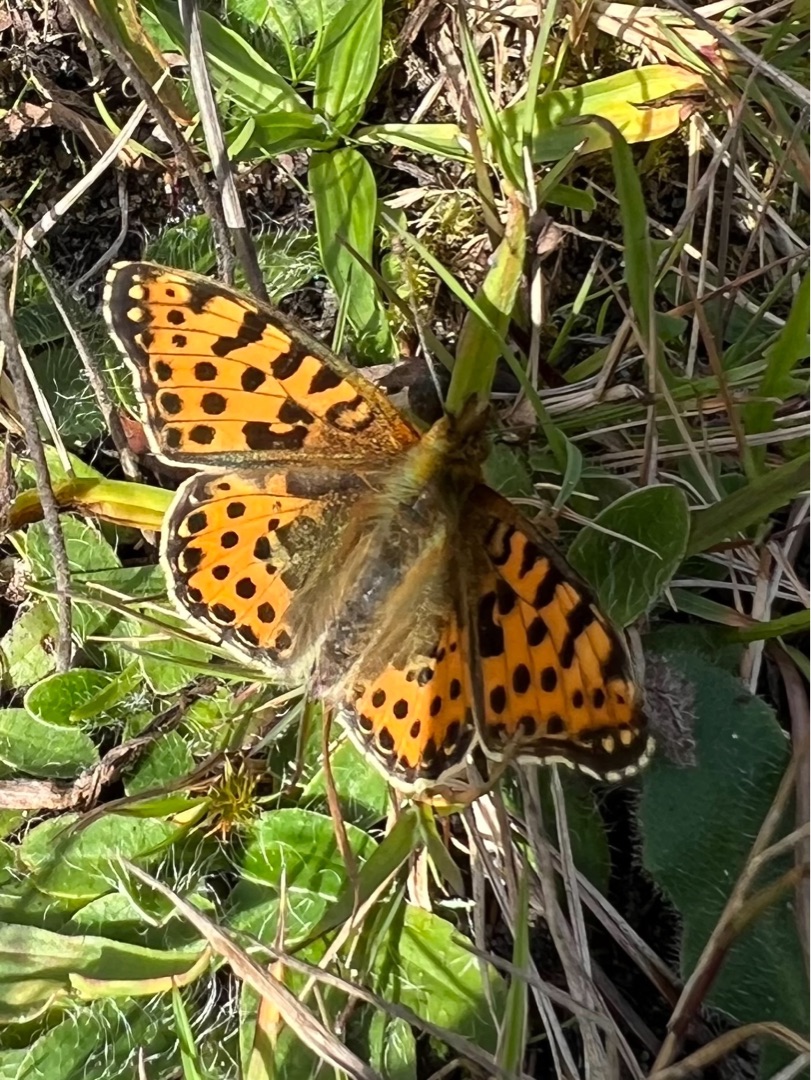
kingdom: Animalia
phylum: Arthropoda
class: Insecta
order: Lepidoptera
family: Nymphalidae
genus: Issoria
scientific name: Issoria lathonia
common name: Storplettet perlemorsommerfugl
